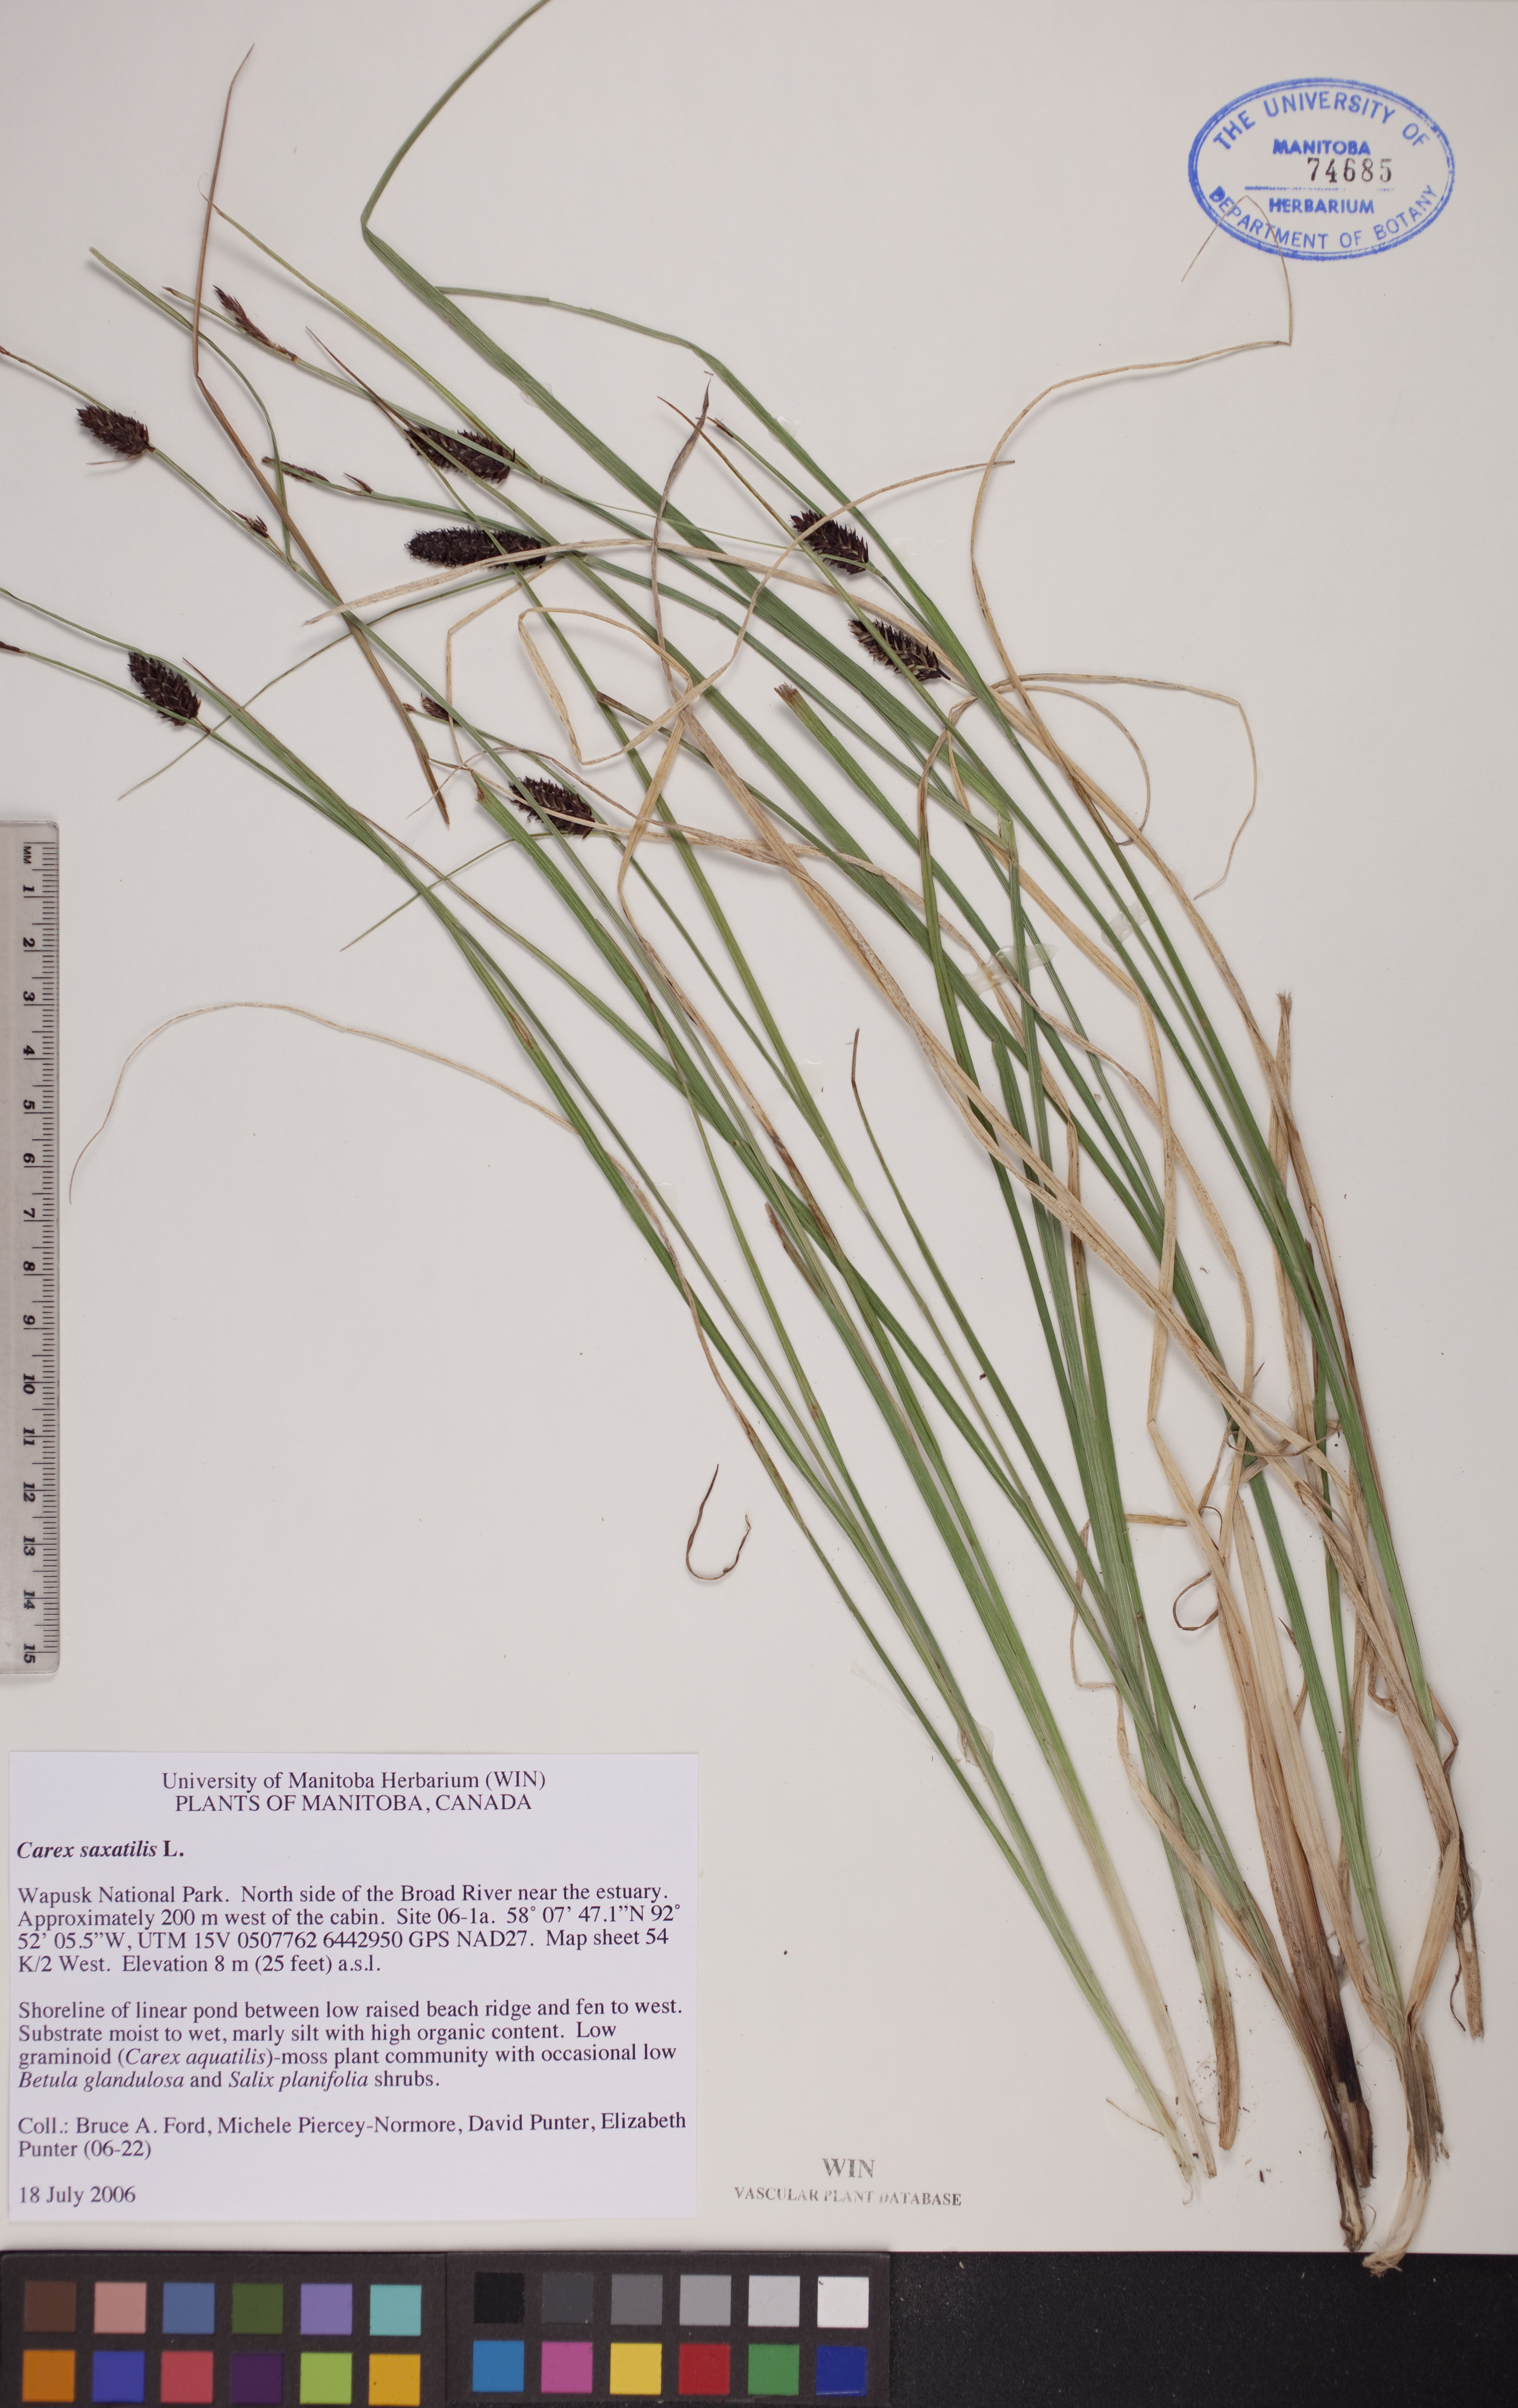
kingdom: Plantae
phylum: Tracheophyta
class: Liliopsida
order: Poales
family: Cyperaceae
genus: Carex
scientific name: Carex saxatilis
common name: Russet sedge
